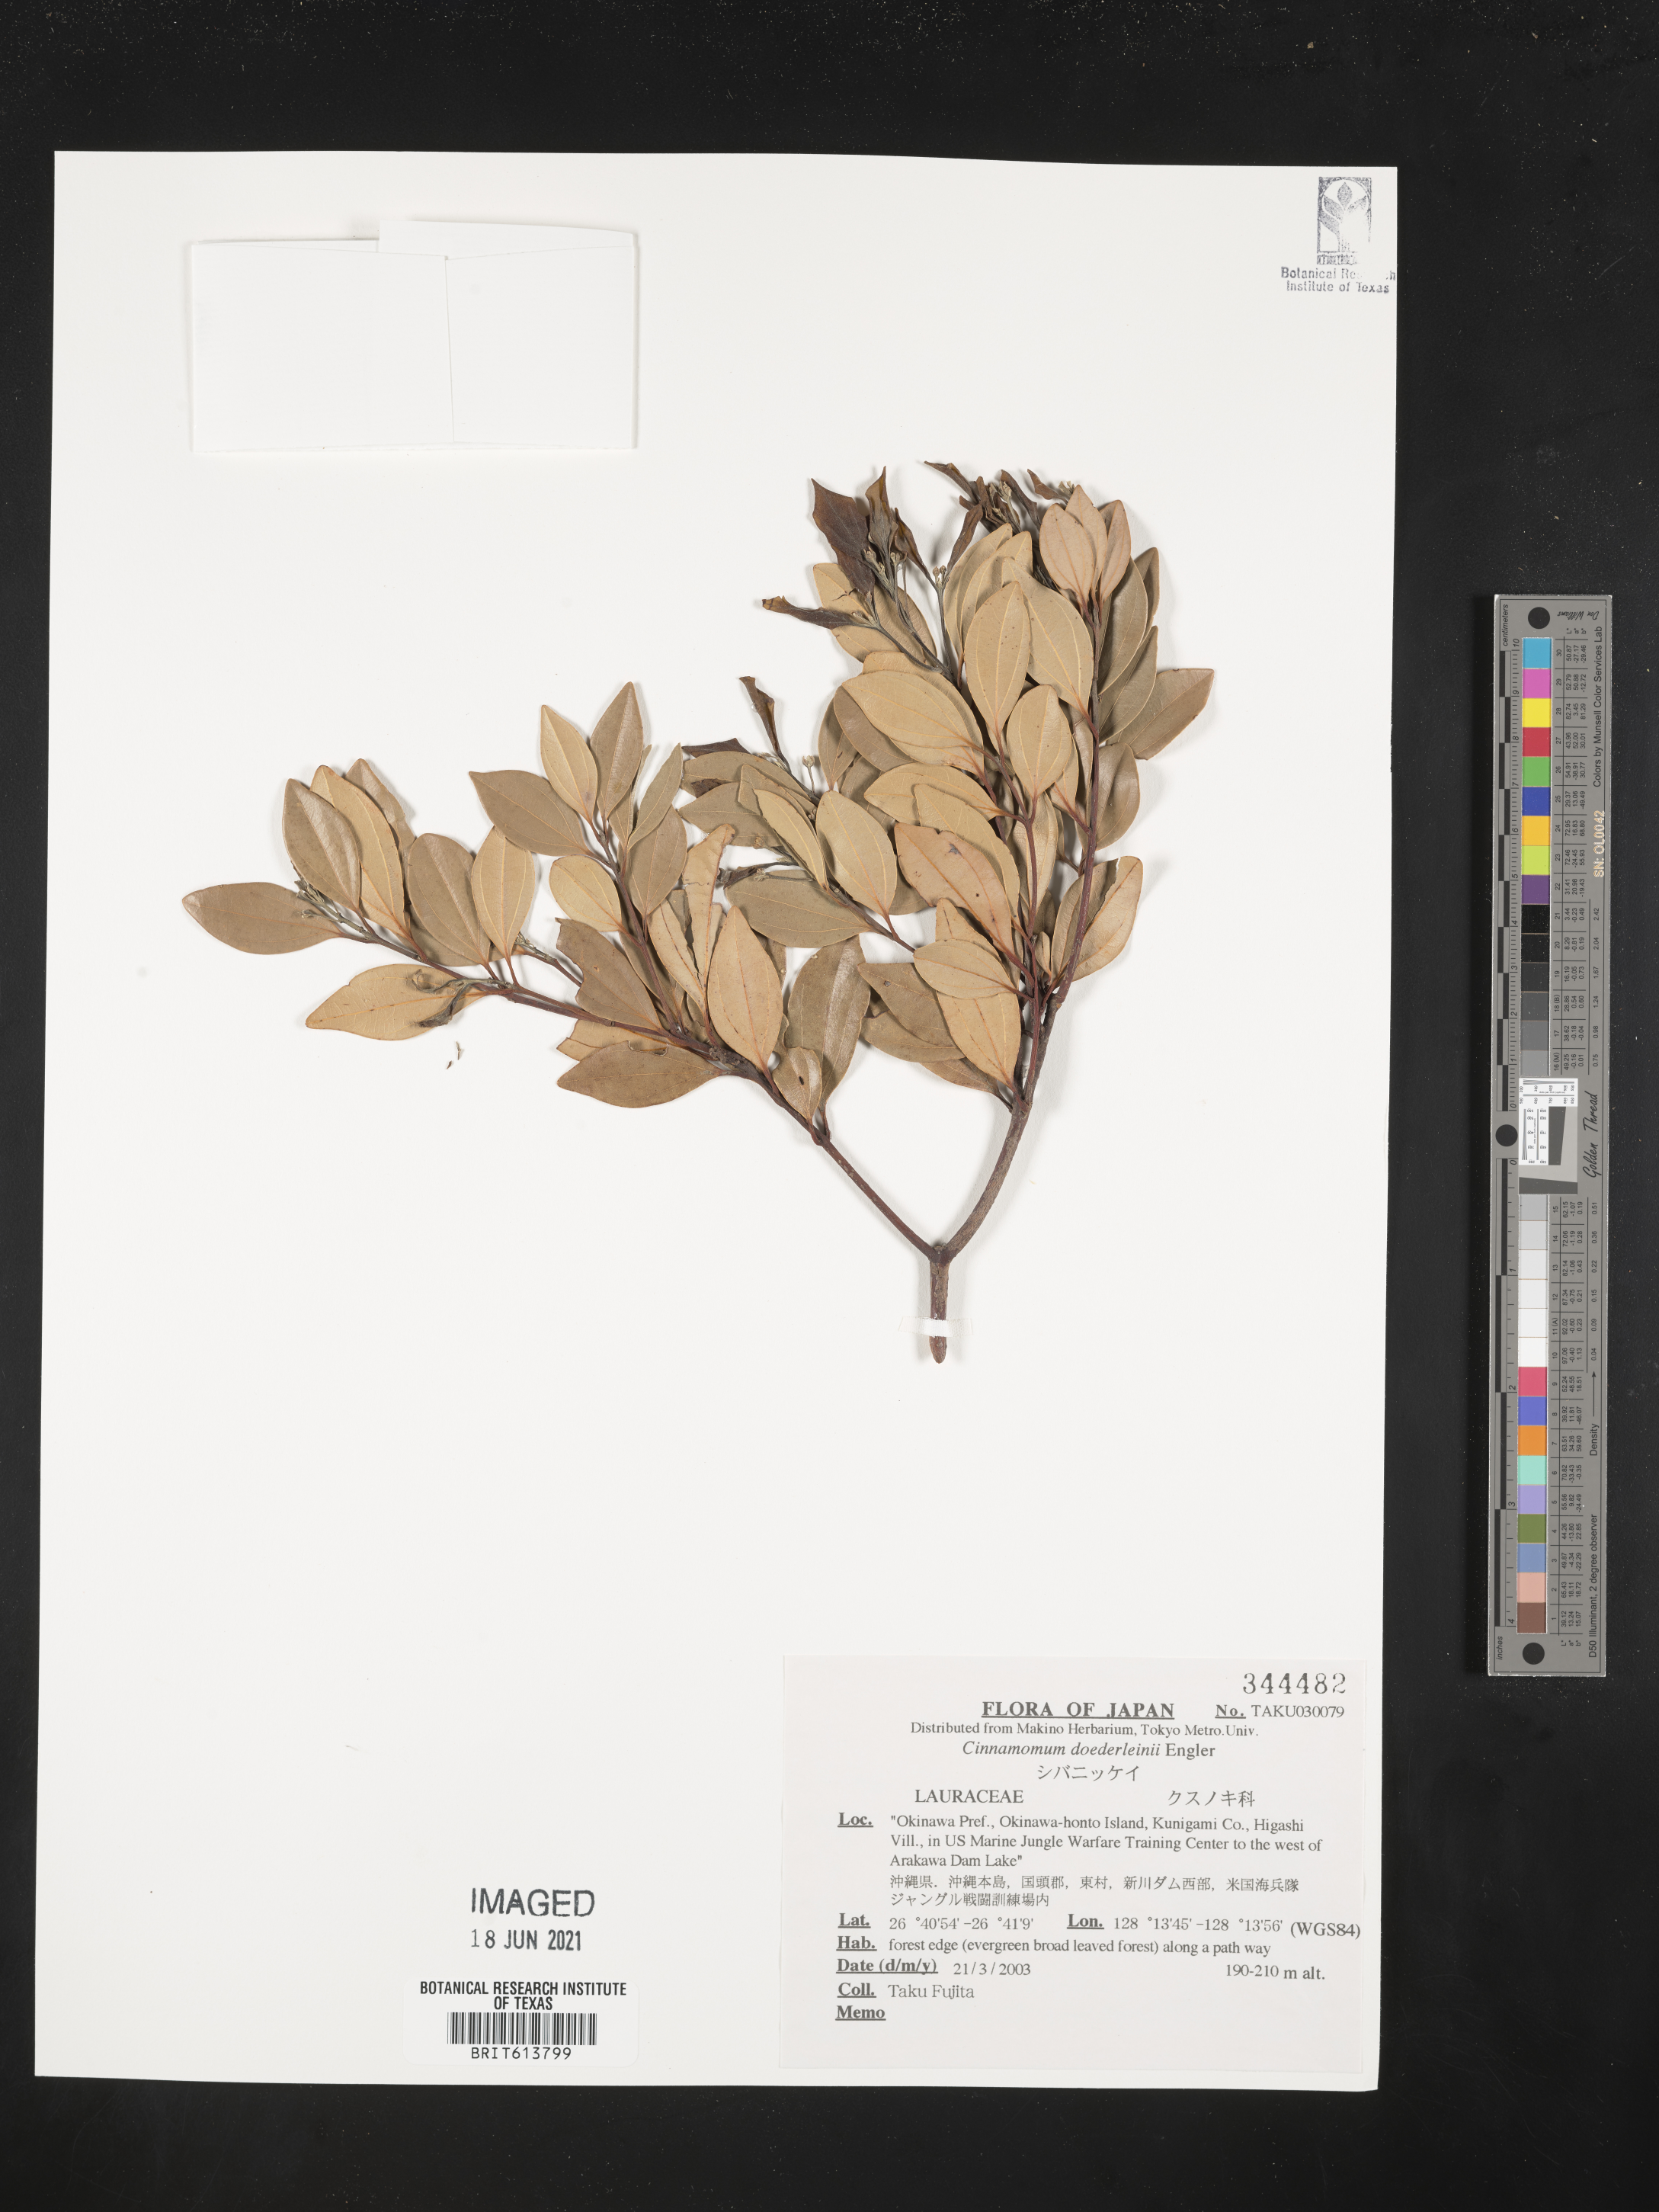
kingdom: Plantae
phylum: Tracheophyta
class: Magnoliopsida
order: Laurales
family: Lauraceae
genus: Cinnamomum
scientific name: Cinnamomum doederleinii
